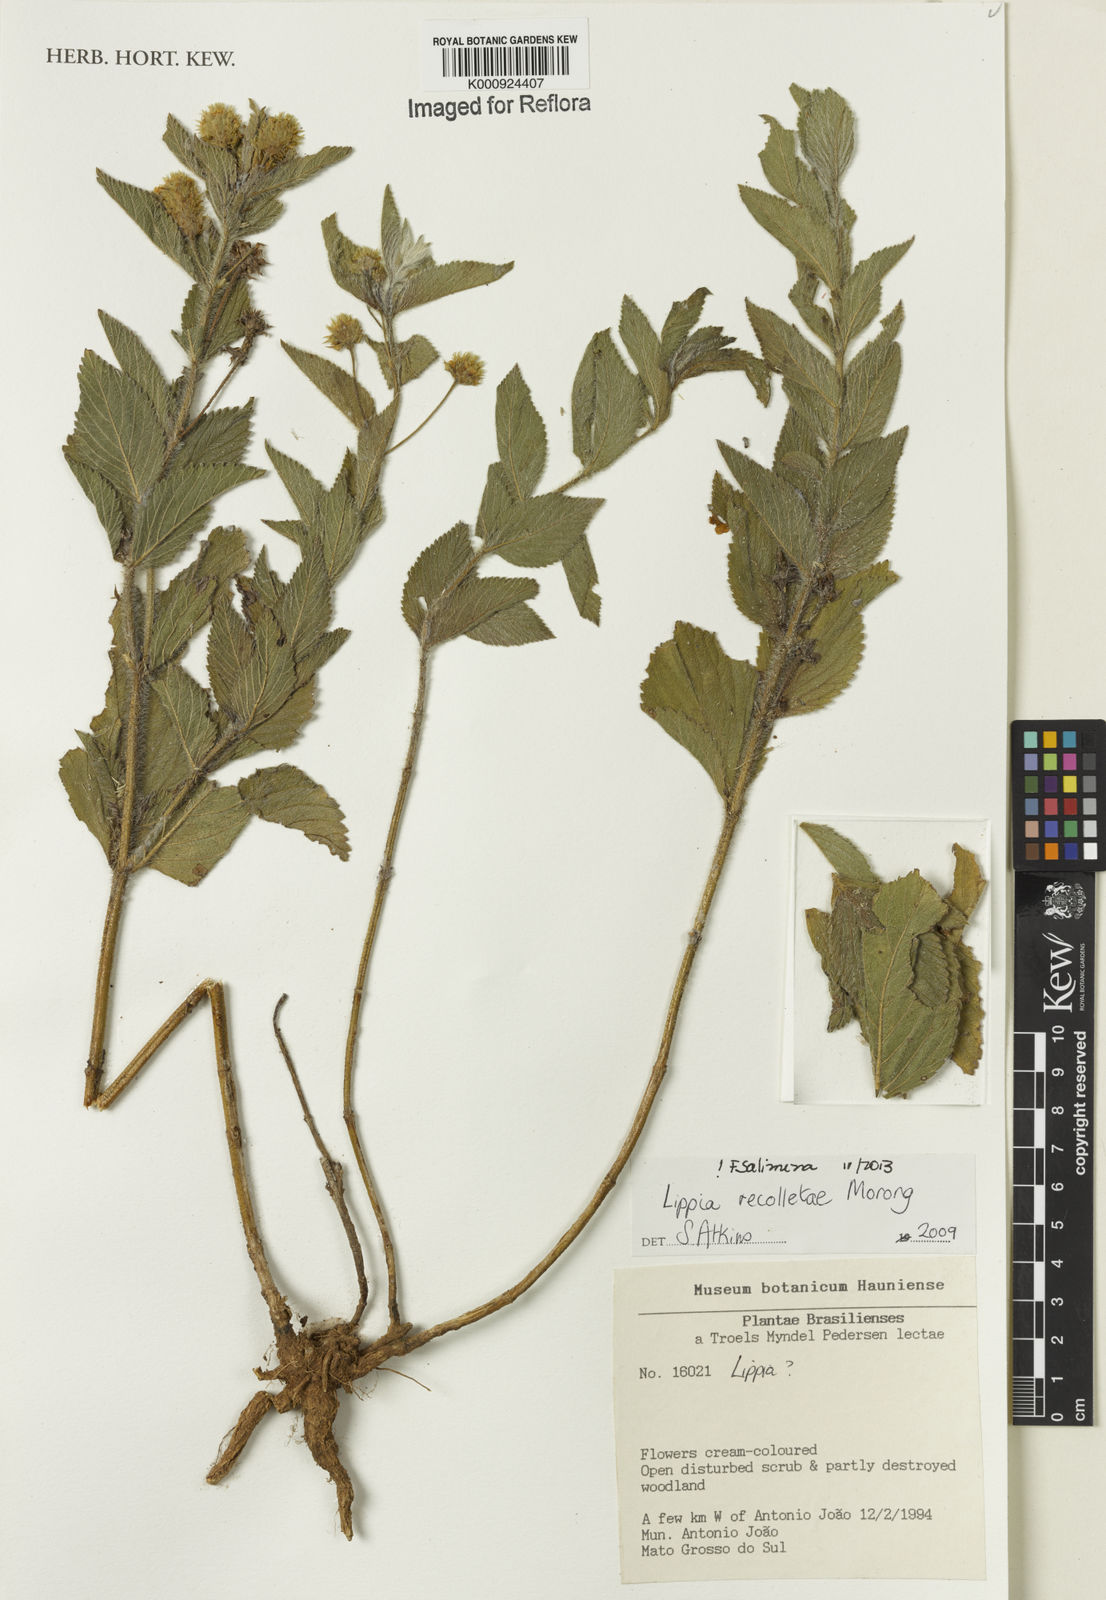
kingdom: Plantae
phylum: Tracheophyta
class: Magnoliopsida
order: Lamiales
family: Verbenaceae
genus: Lippia
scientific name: Lippia
